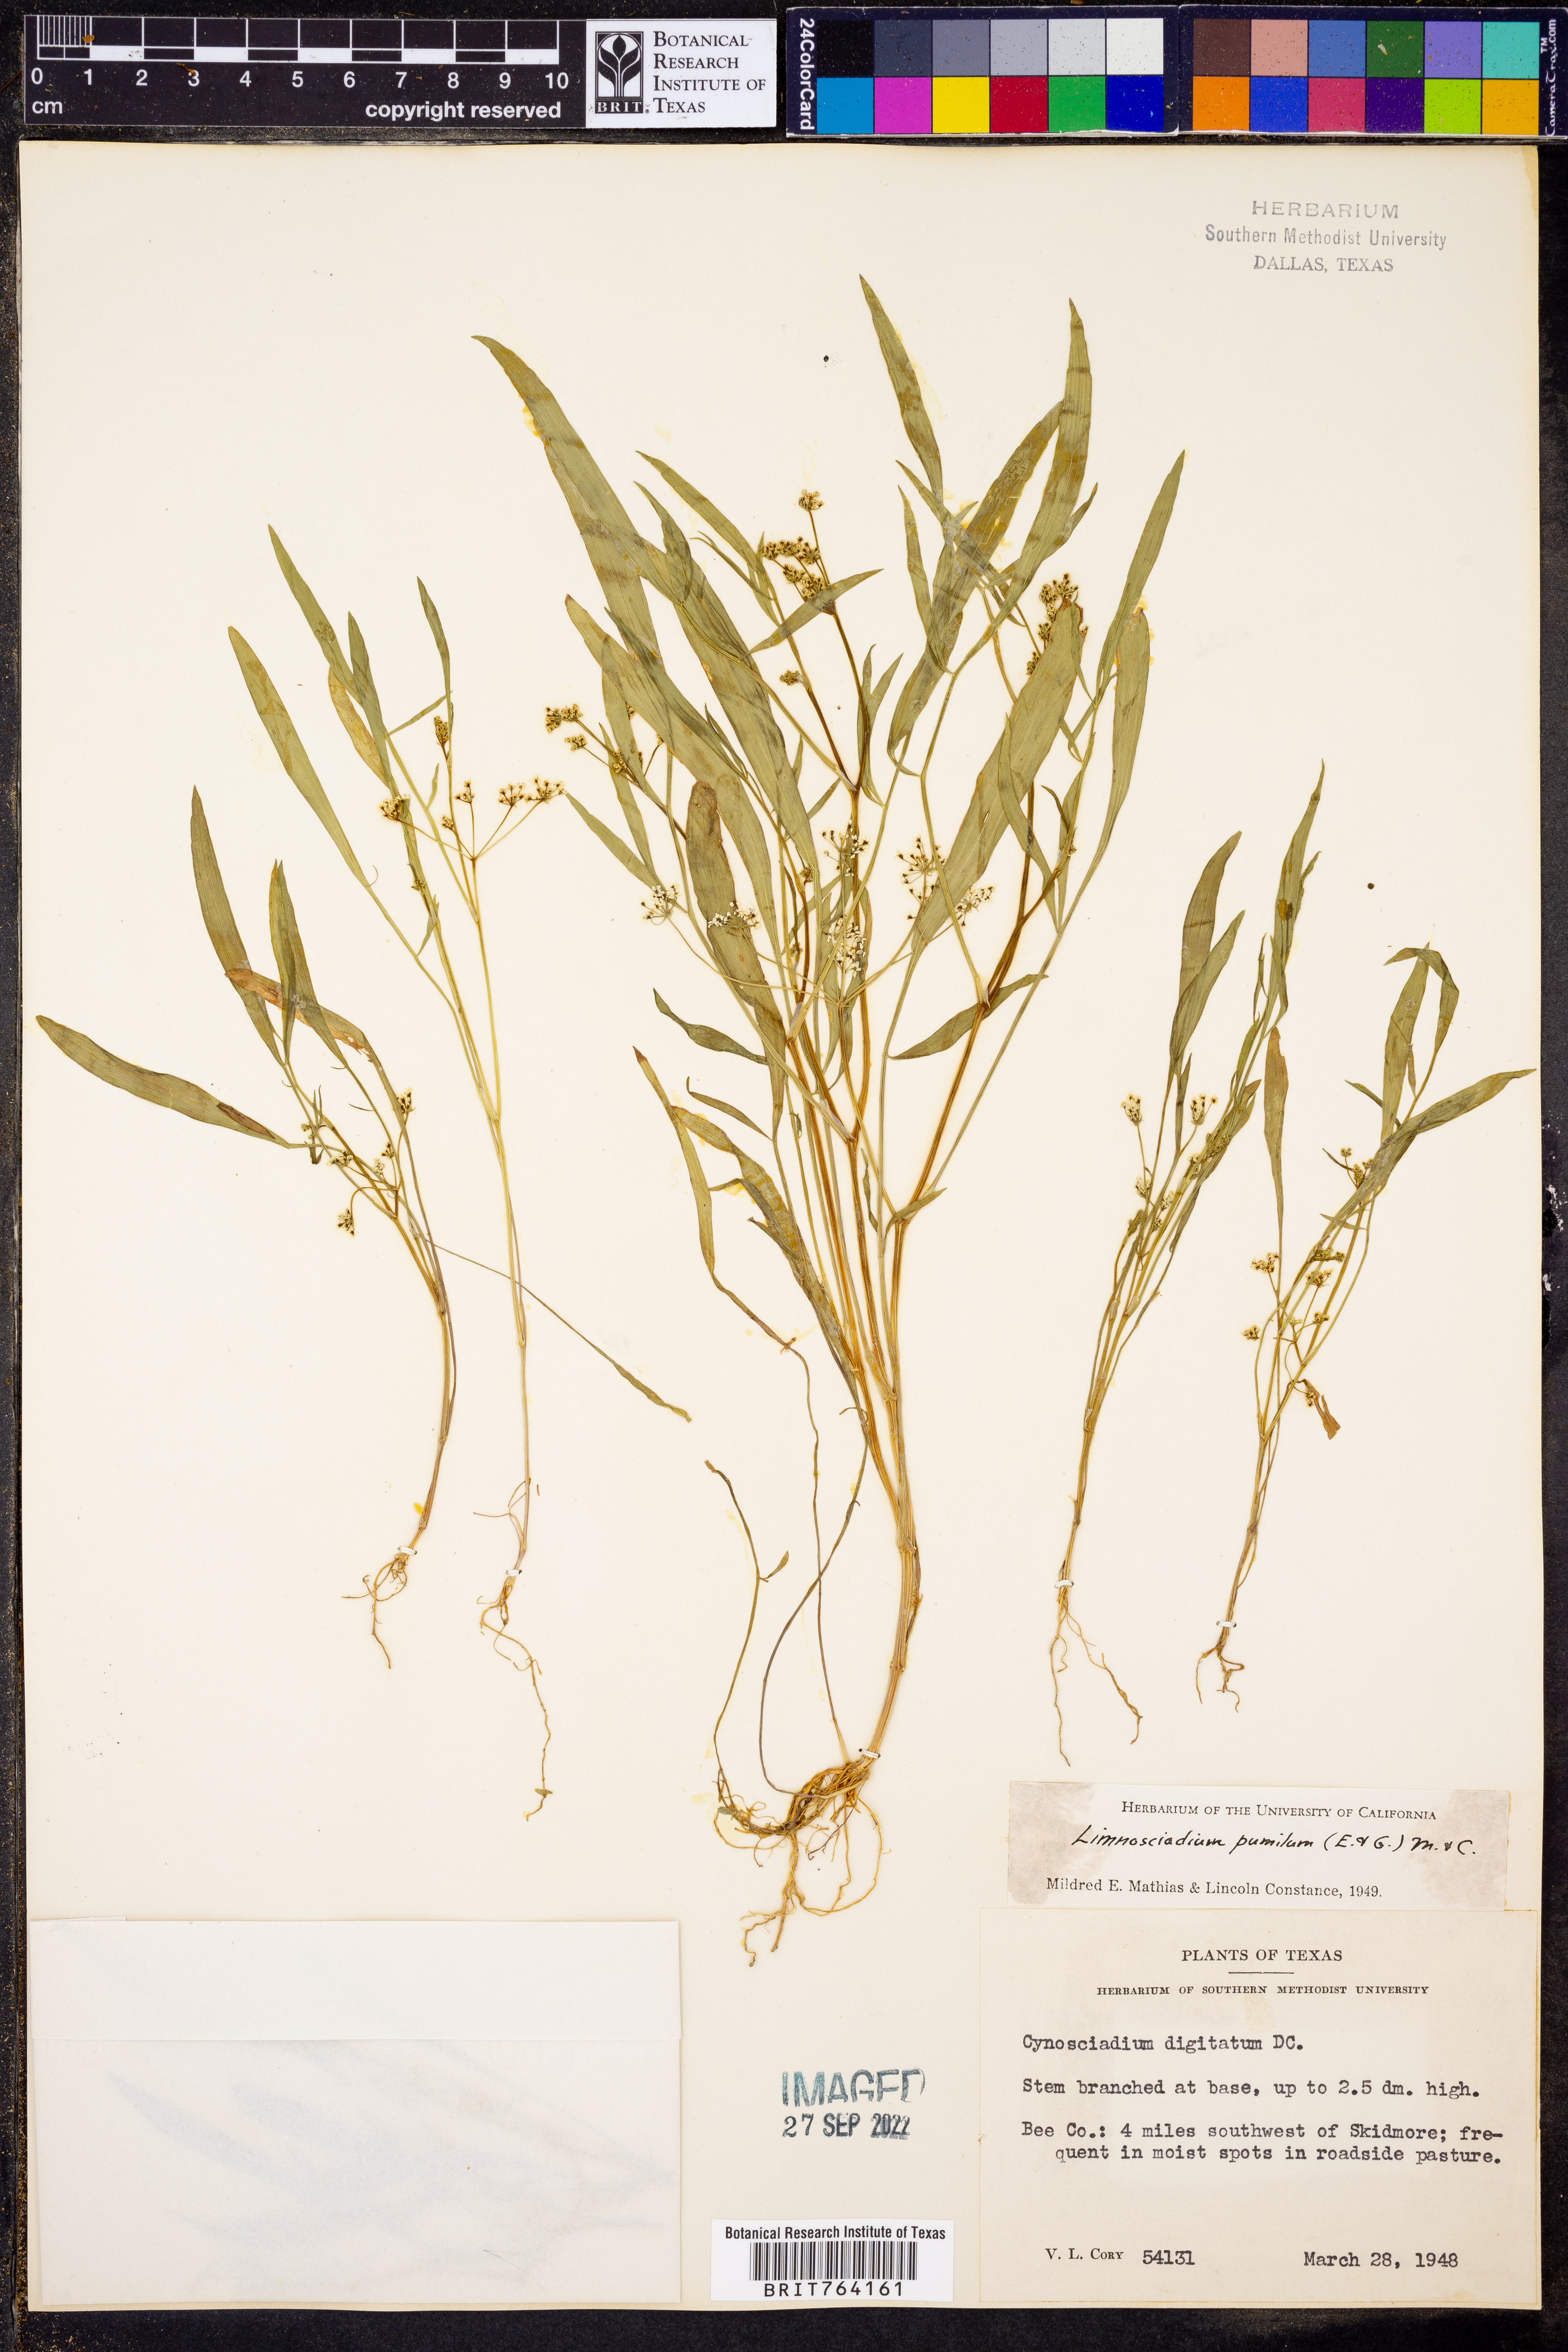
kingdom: Plantae
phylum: Tracheophyta
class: Magnoliopsida
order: Apiales
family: Apiaceae
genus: Limnosciadium
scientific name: Limnosciadium pinnatum
